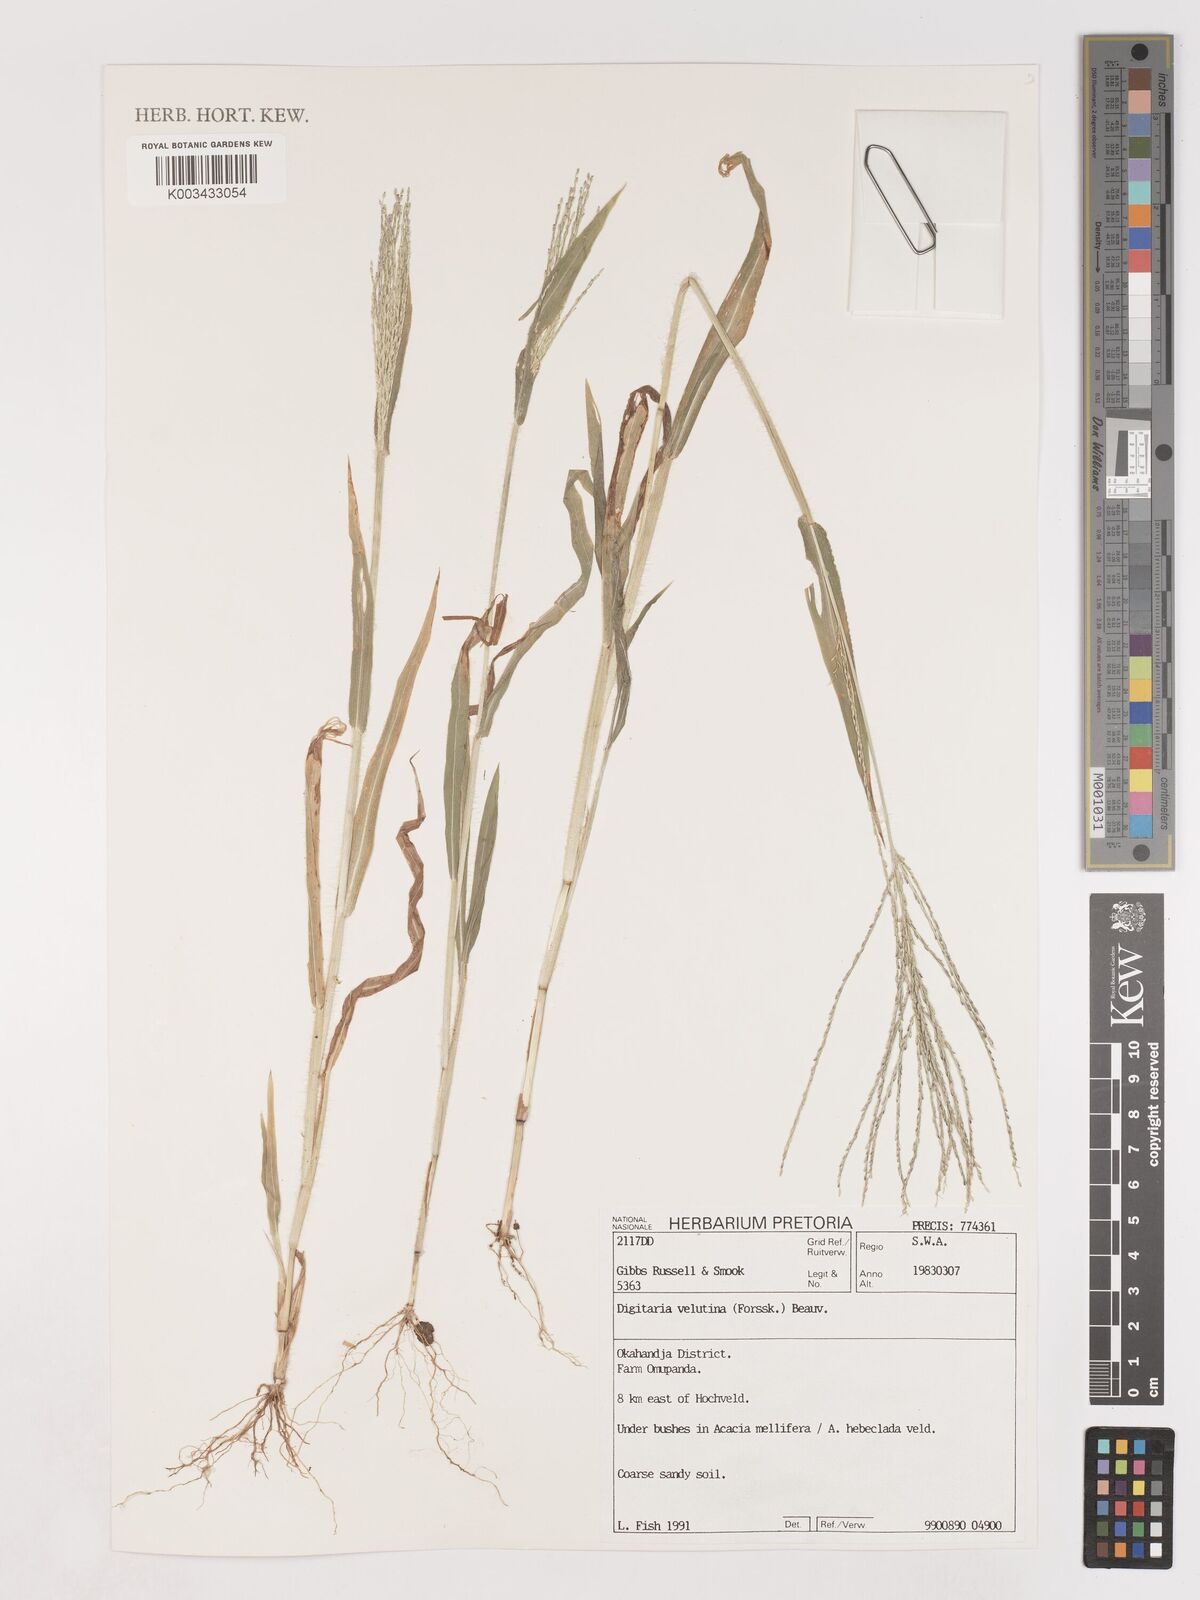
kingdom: Plantae
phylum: Tracheophyta
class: Liliopsida
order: Poales
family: Poaceae
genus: Digitaria
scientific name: Digitaria velutina
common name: Long-plume finger grass
